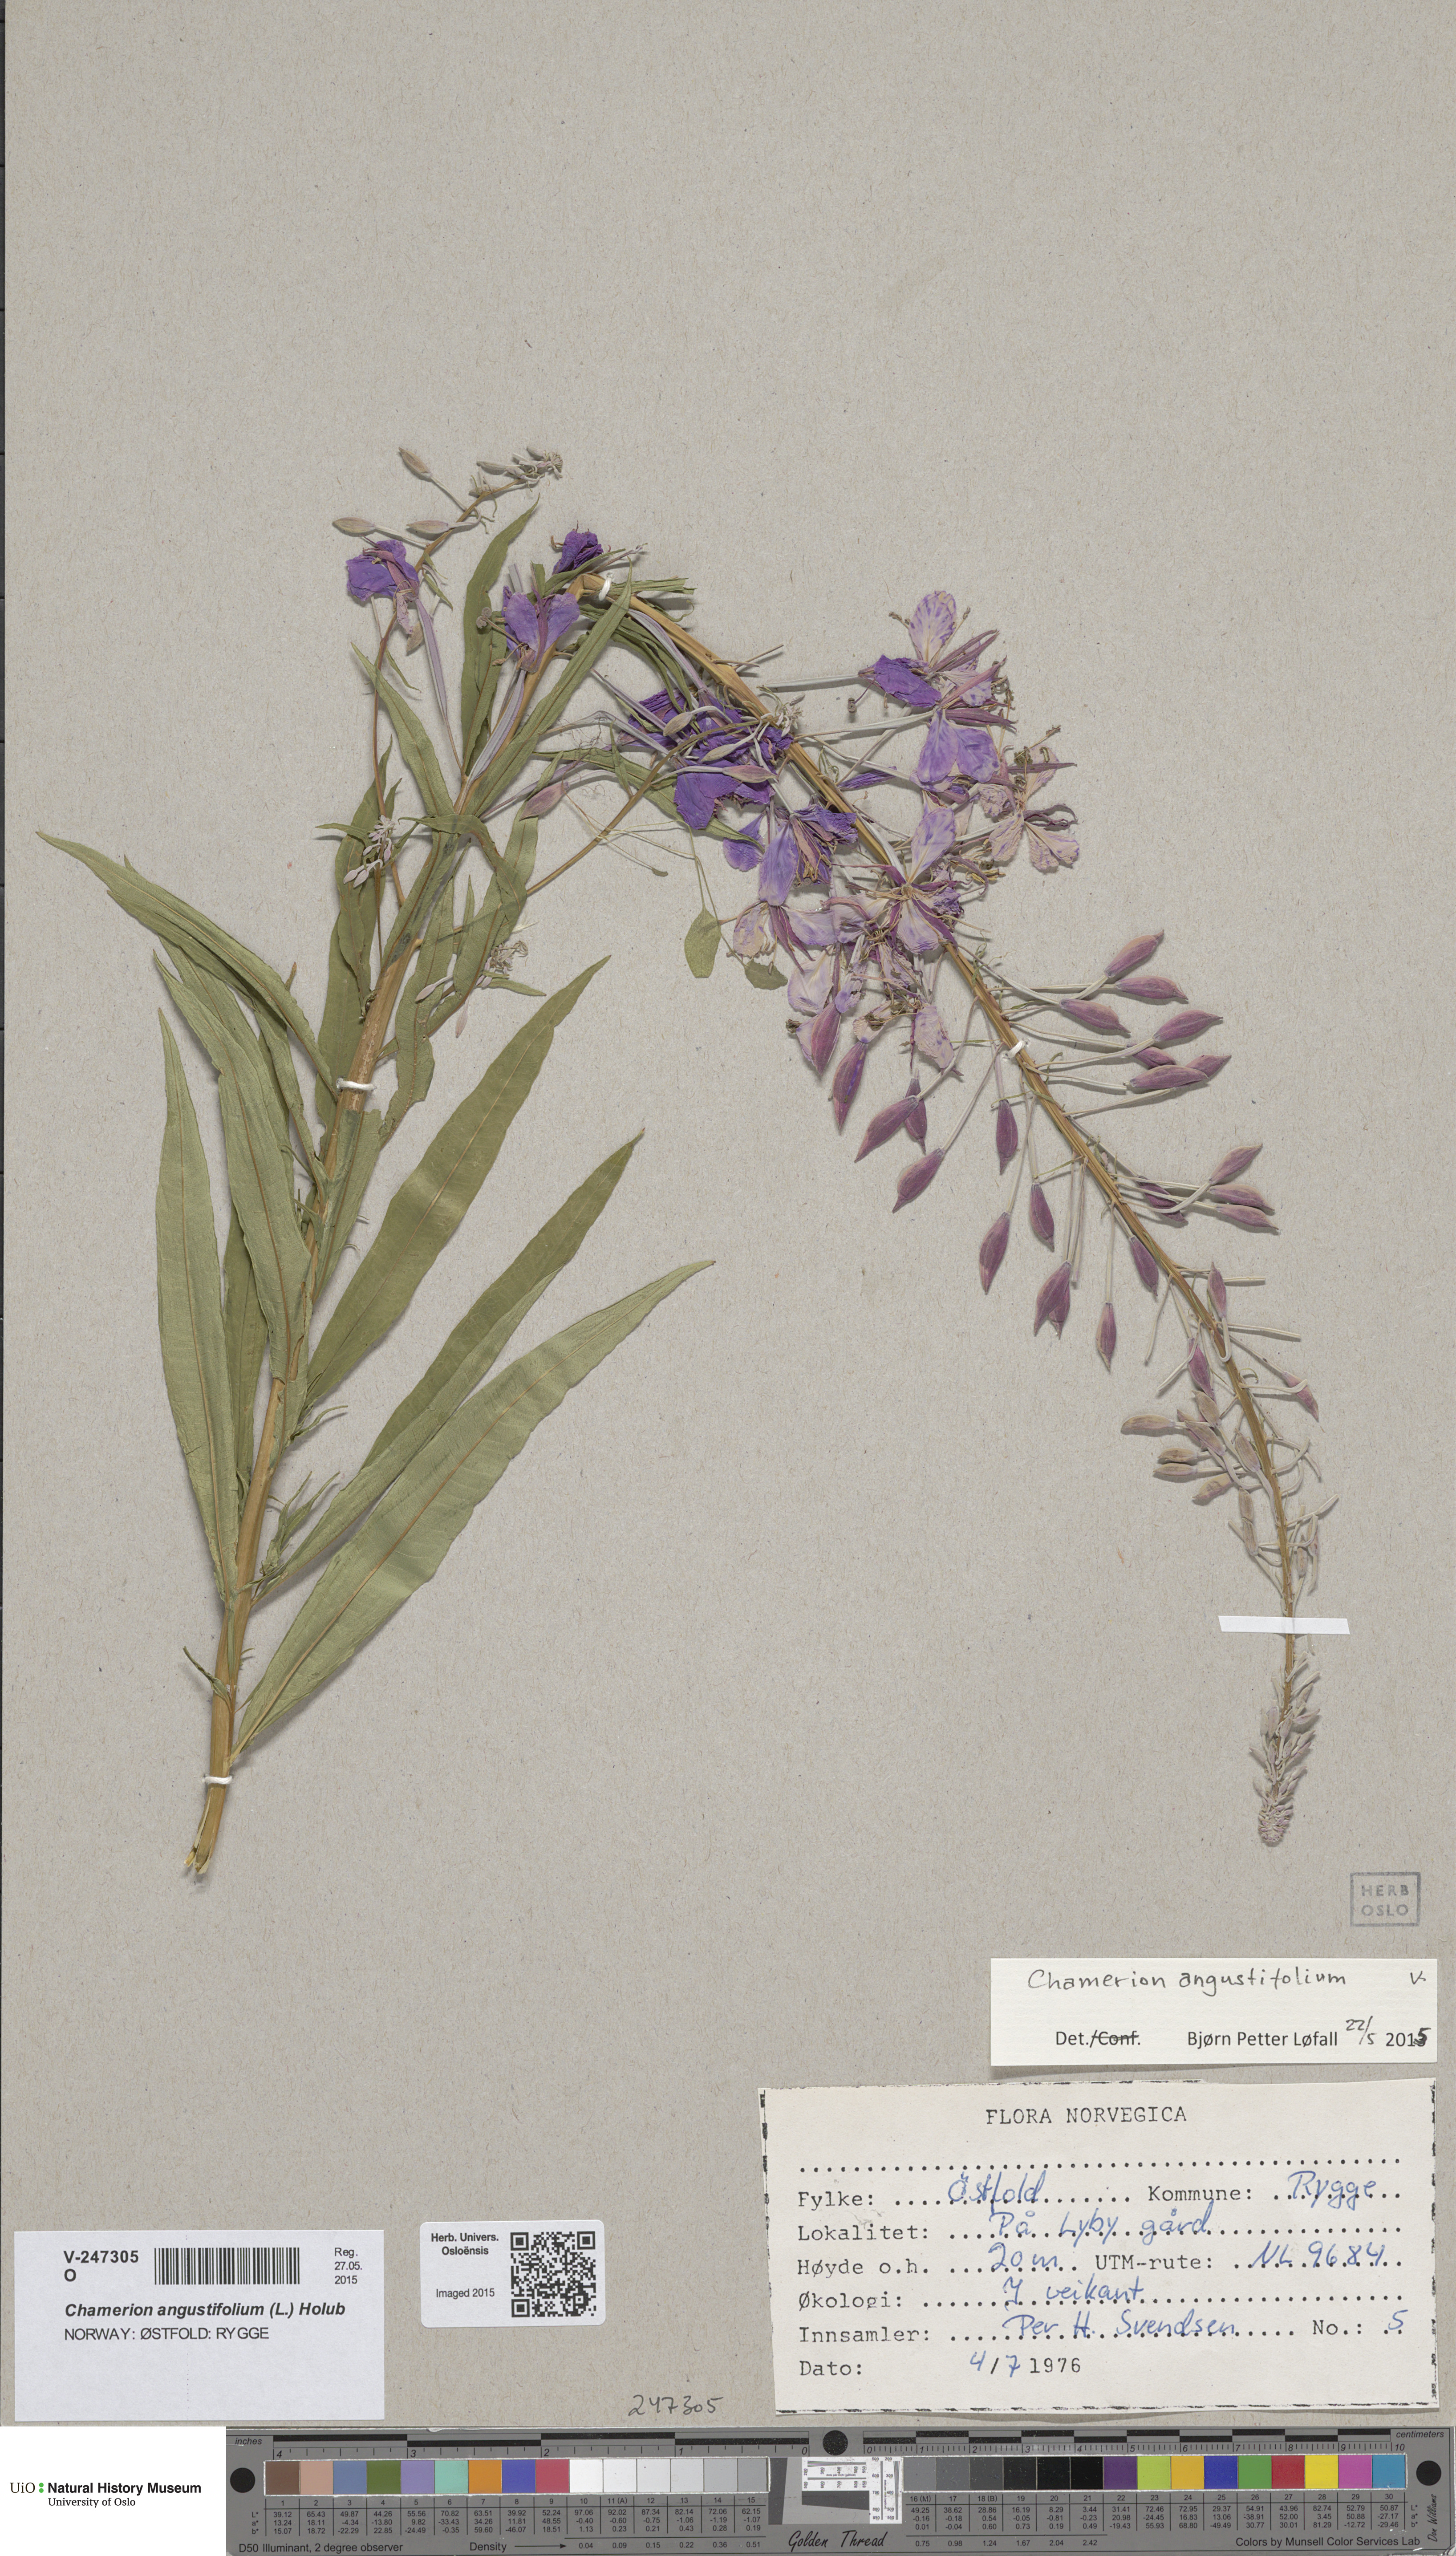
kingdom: Plantae
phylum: Tracheophyta
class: Magnoliopsida
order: Myrtales
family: Onagraceae
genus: Chamaenerion
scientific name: Chamaenerion angustifolium
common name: Fireweed
